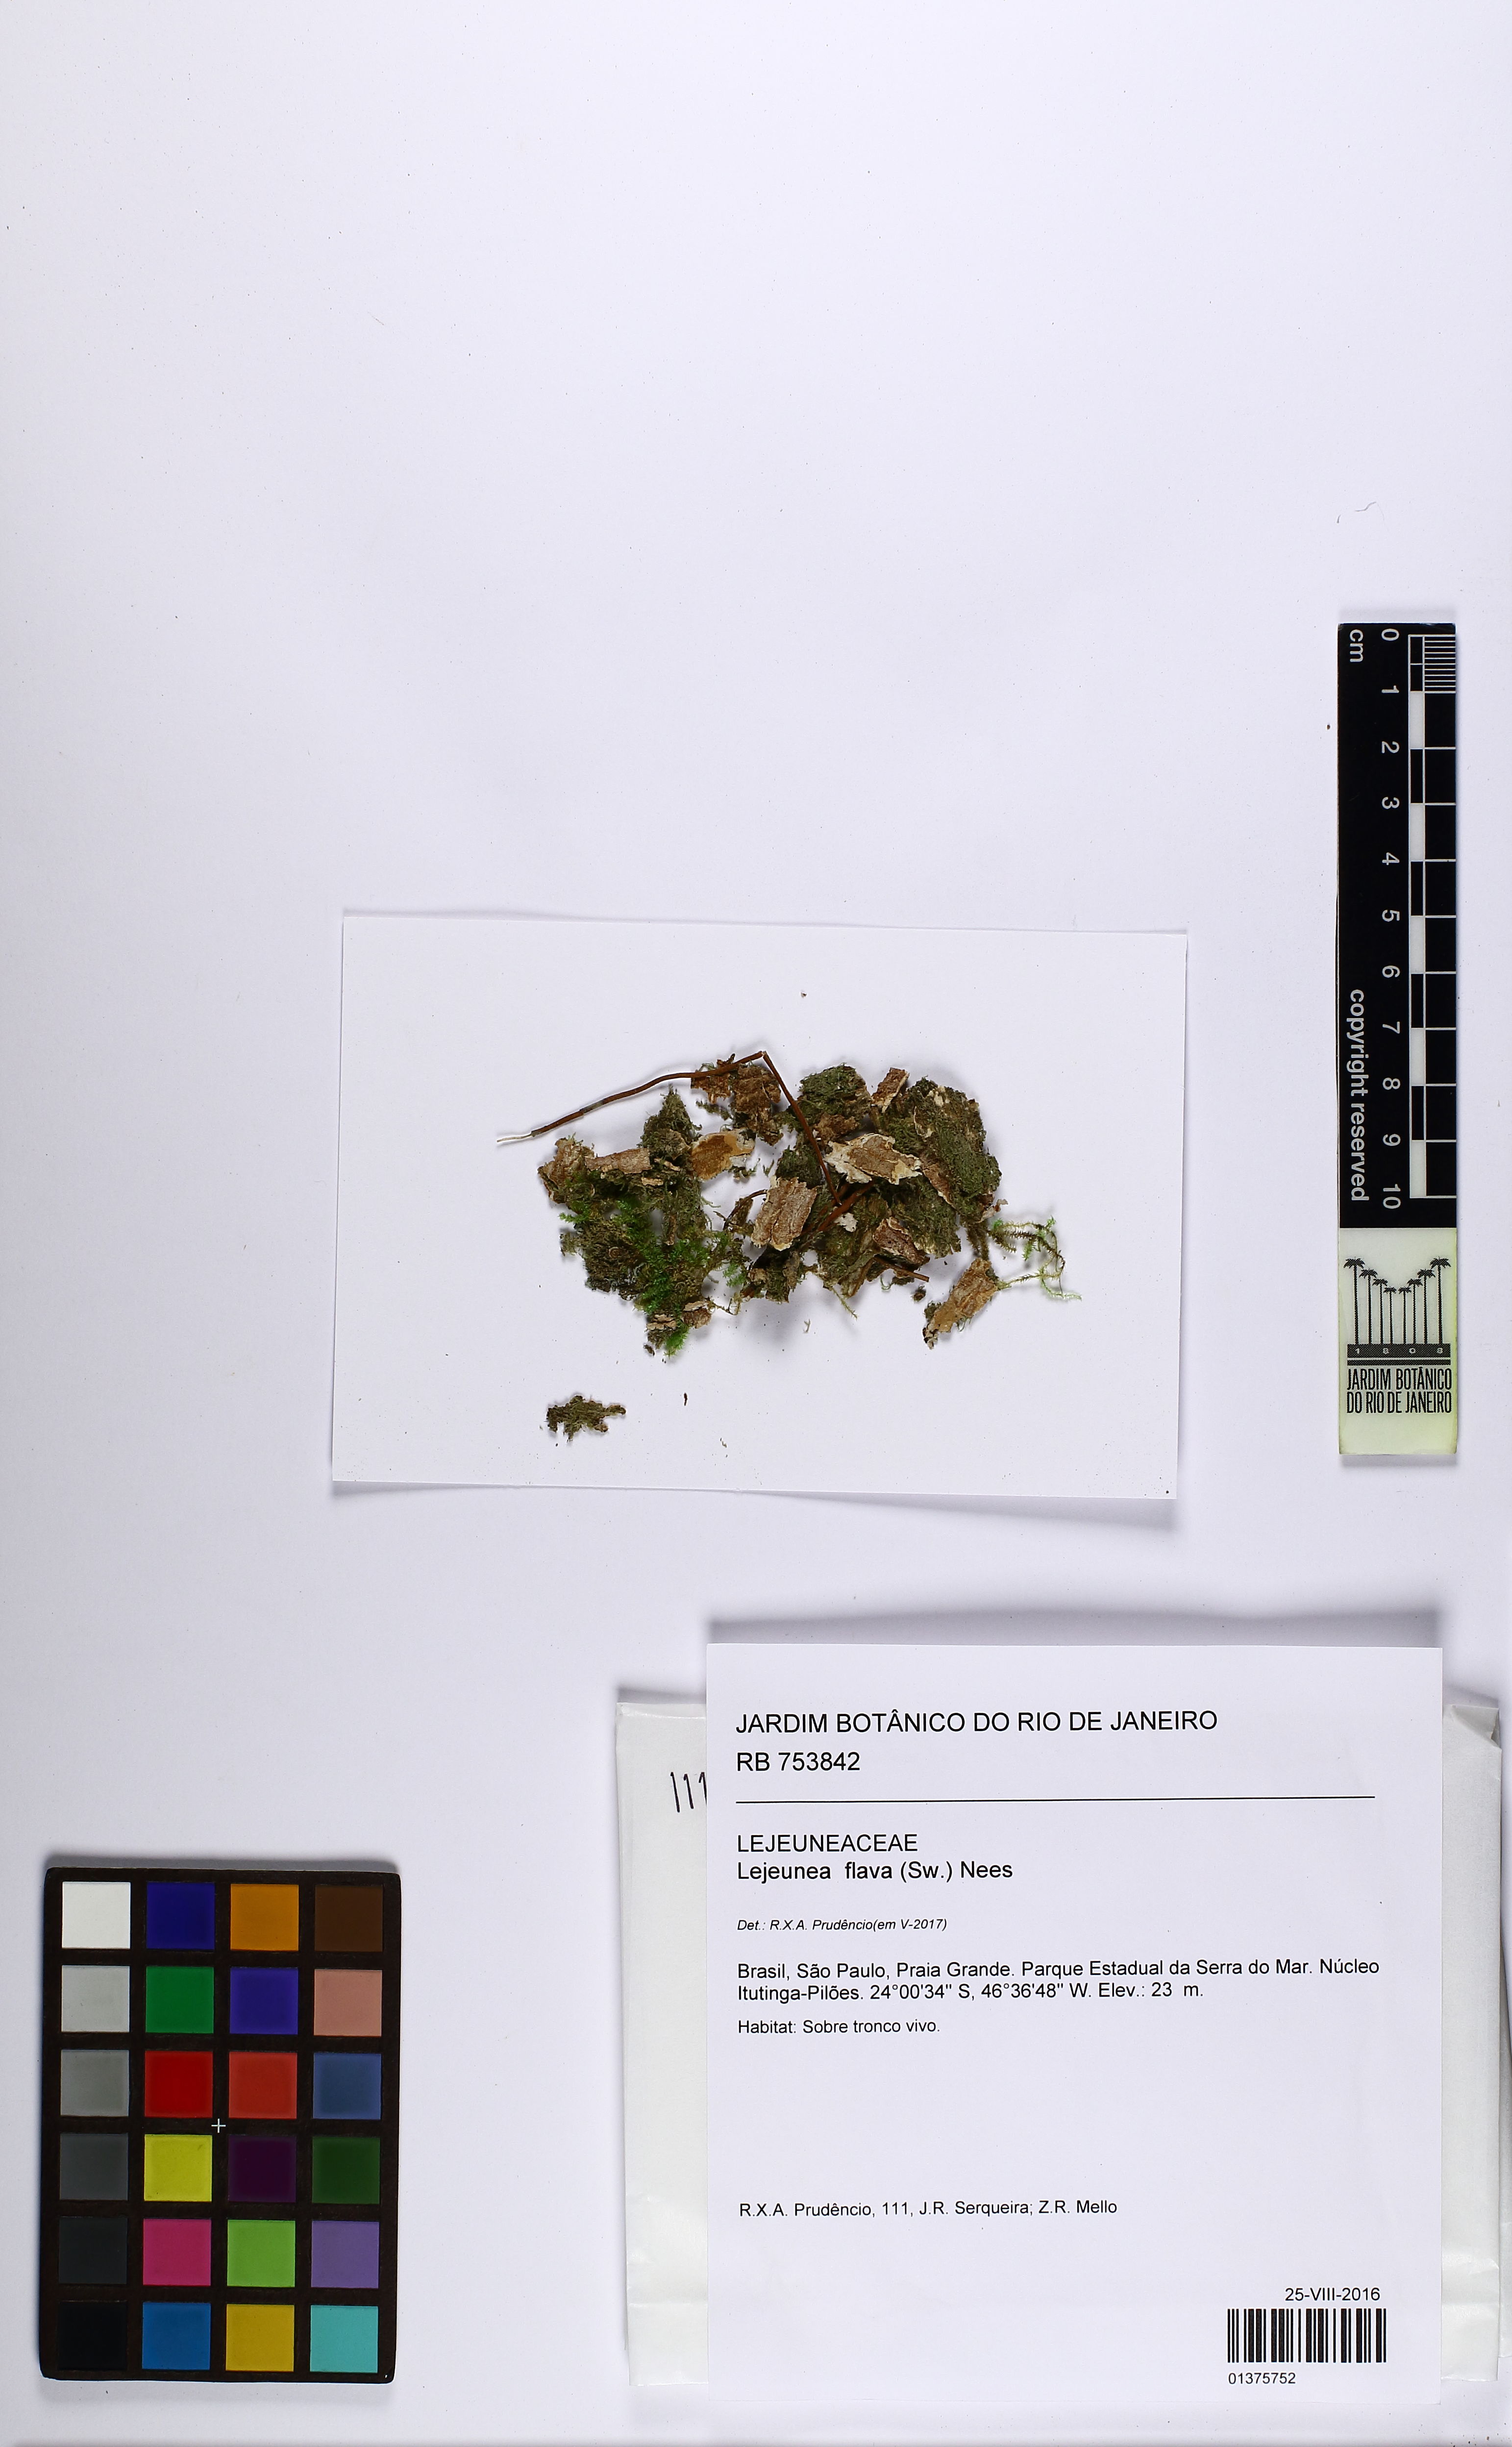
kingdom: Plantae
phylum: Marchantiophyta
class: Jungermanniopsida
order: Porellales
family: Lejeuneaceae
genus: Lejeunea
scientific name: Lejeunea flava
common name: Yellow pouncewort
